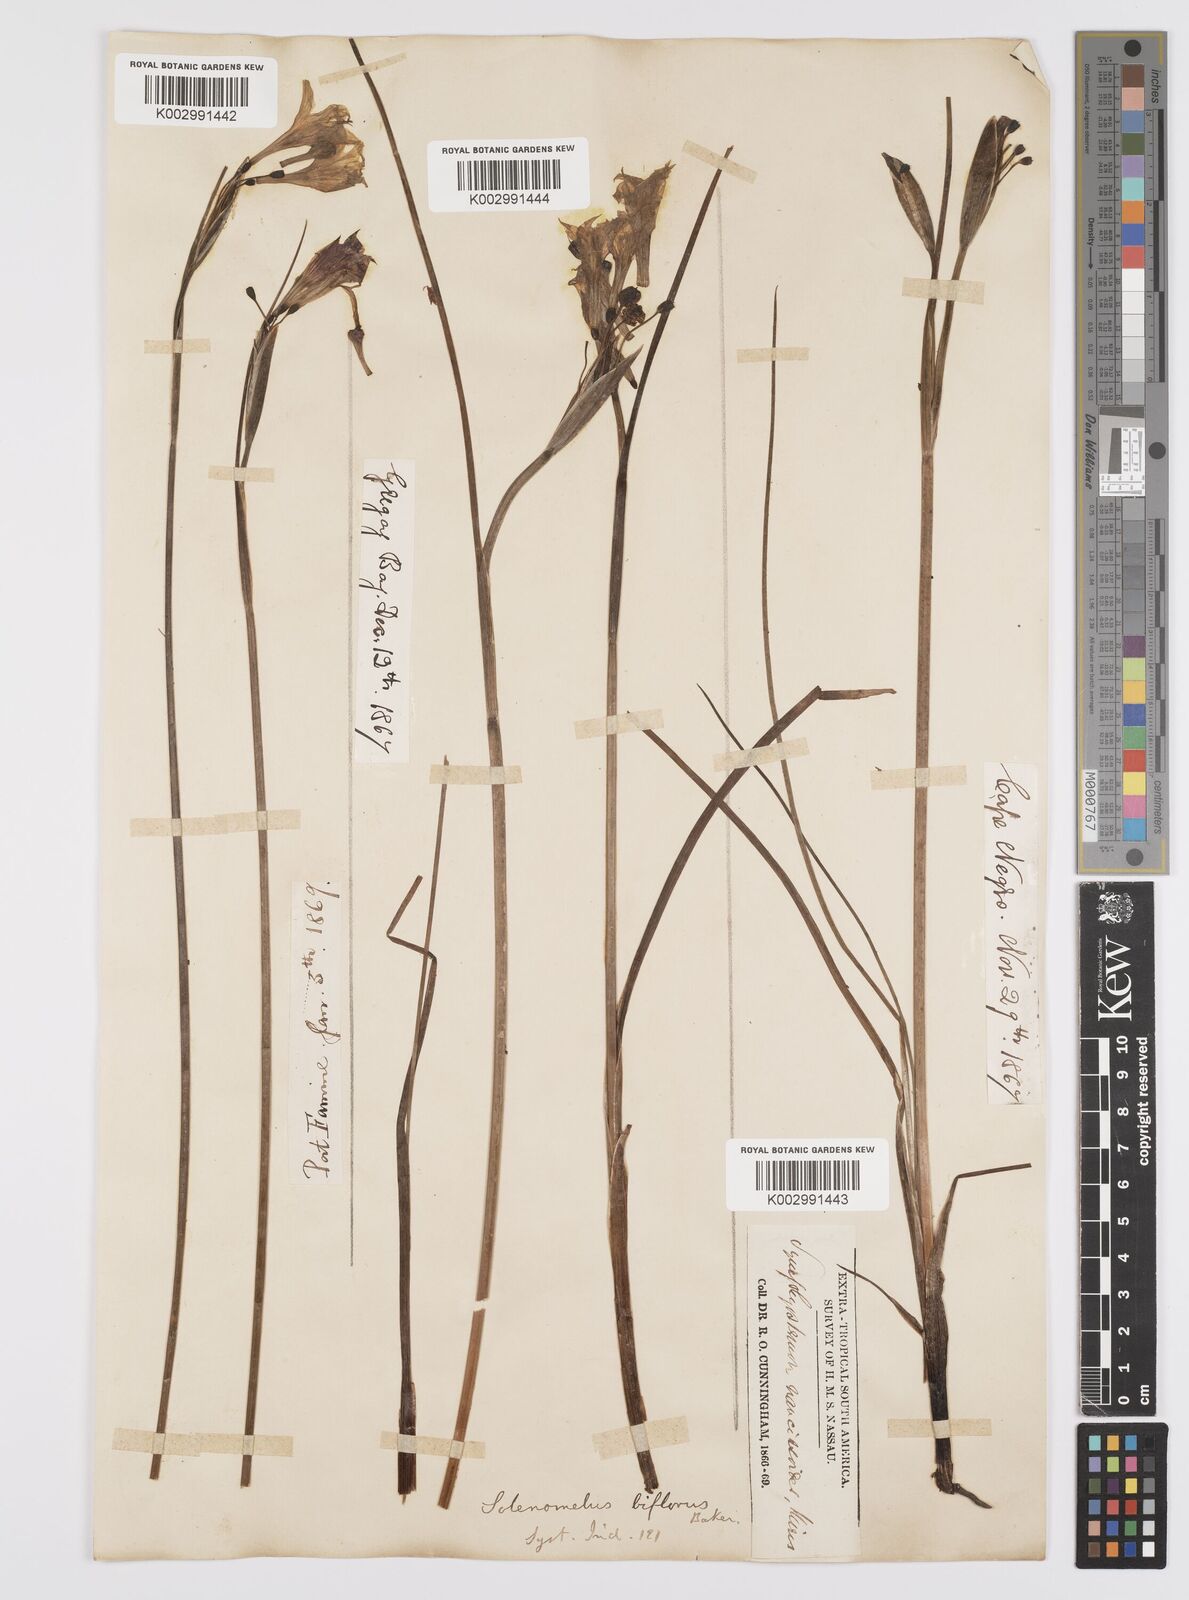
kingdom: Plantae
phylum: Tracheophyta
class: Liliopsida
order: Asparagales
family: Iridaceae
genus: Olsynium
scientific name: Olsynium biflorum
